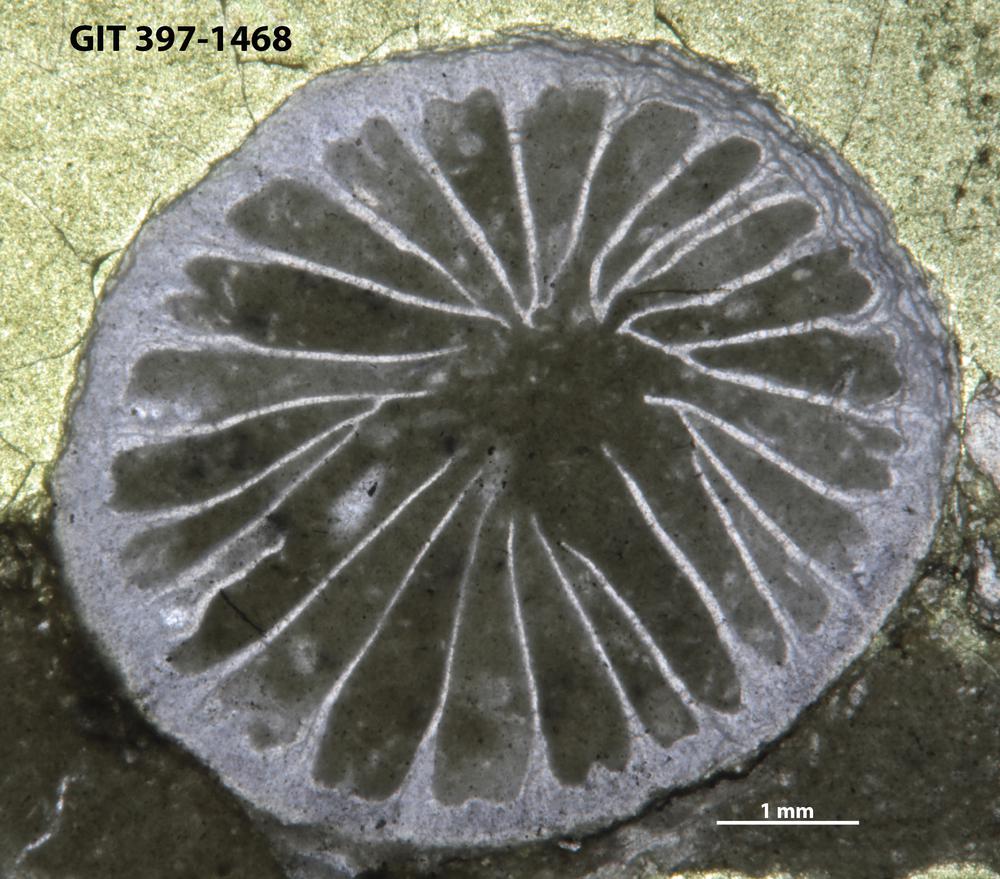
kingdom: Animalia
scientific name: Animalia
